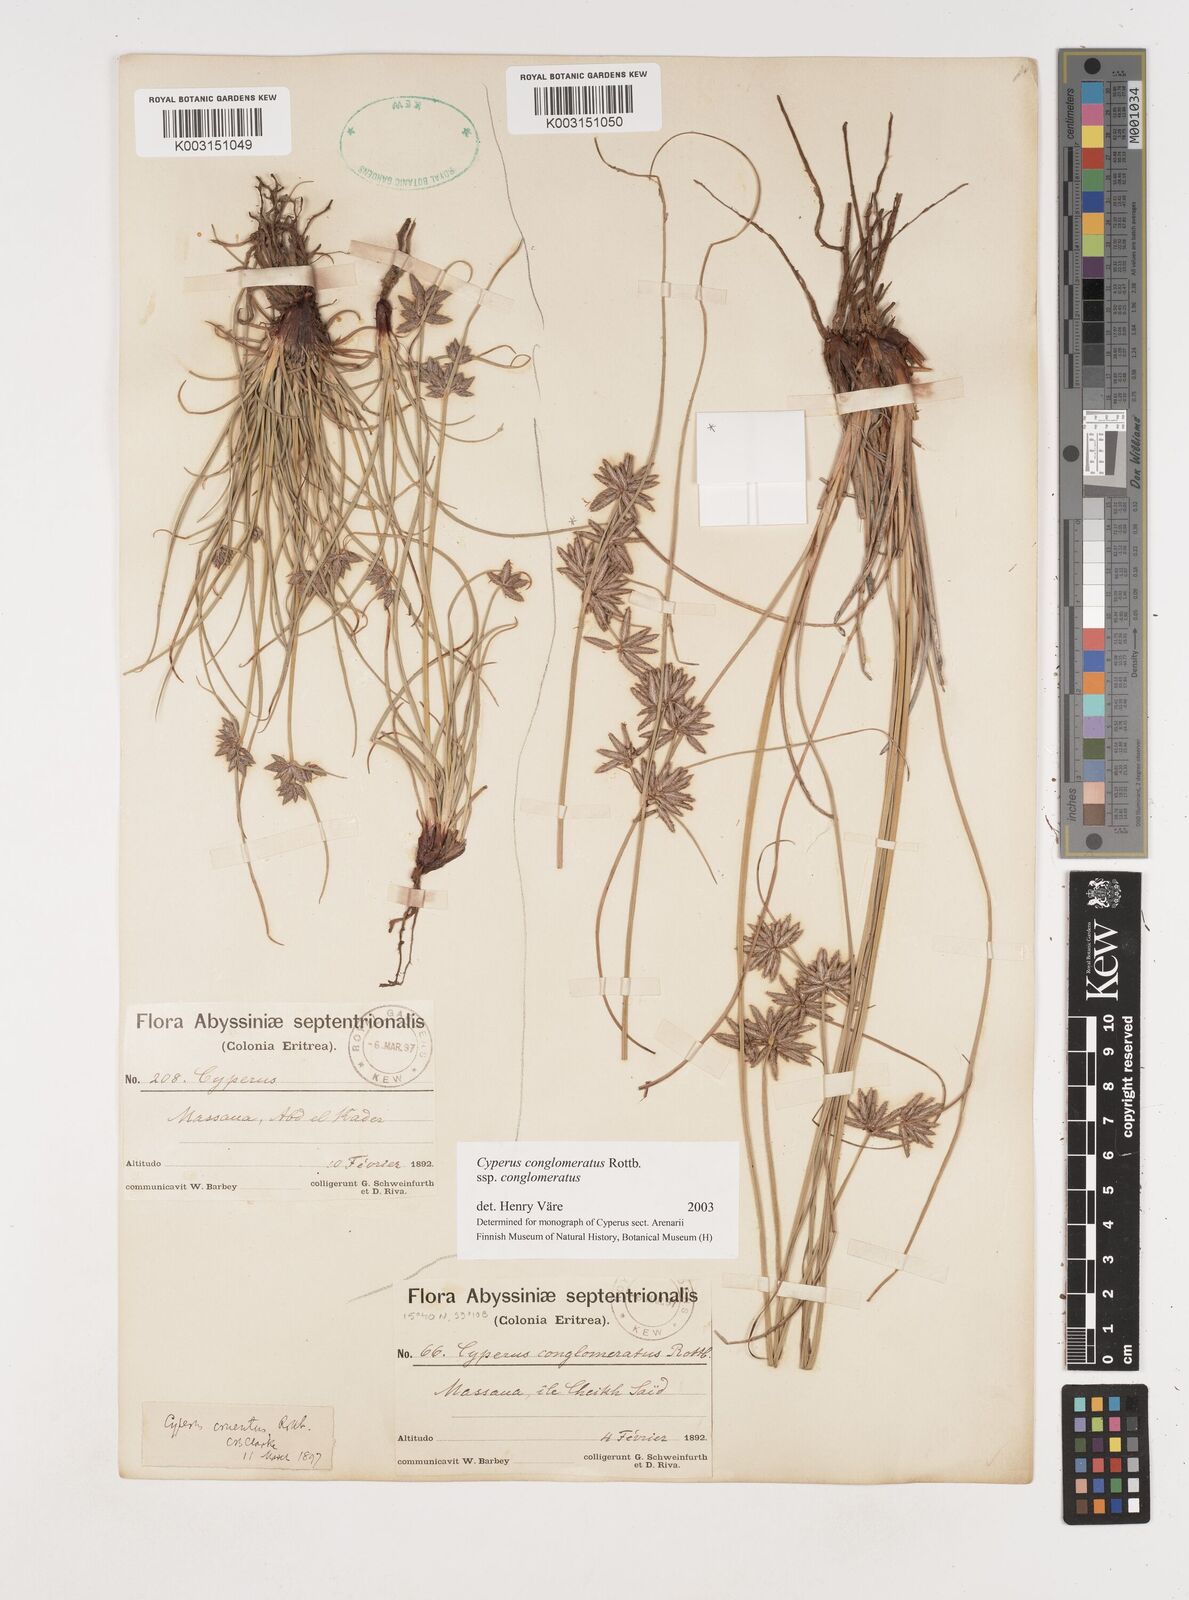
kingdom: Plantae
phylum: Tracheophyta
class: Liliopsida
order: Poales
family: Cyperaceae
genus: Cyperus
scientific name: Cyperus conglomeratus
